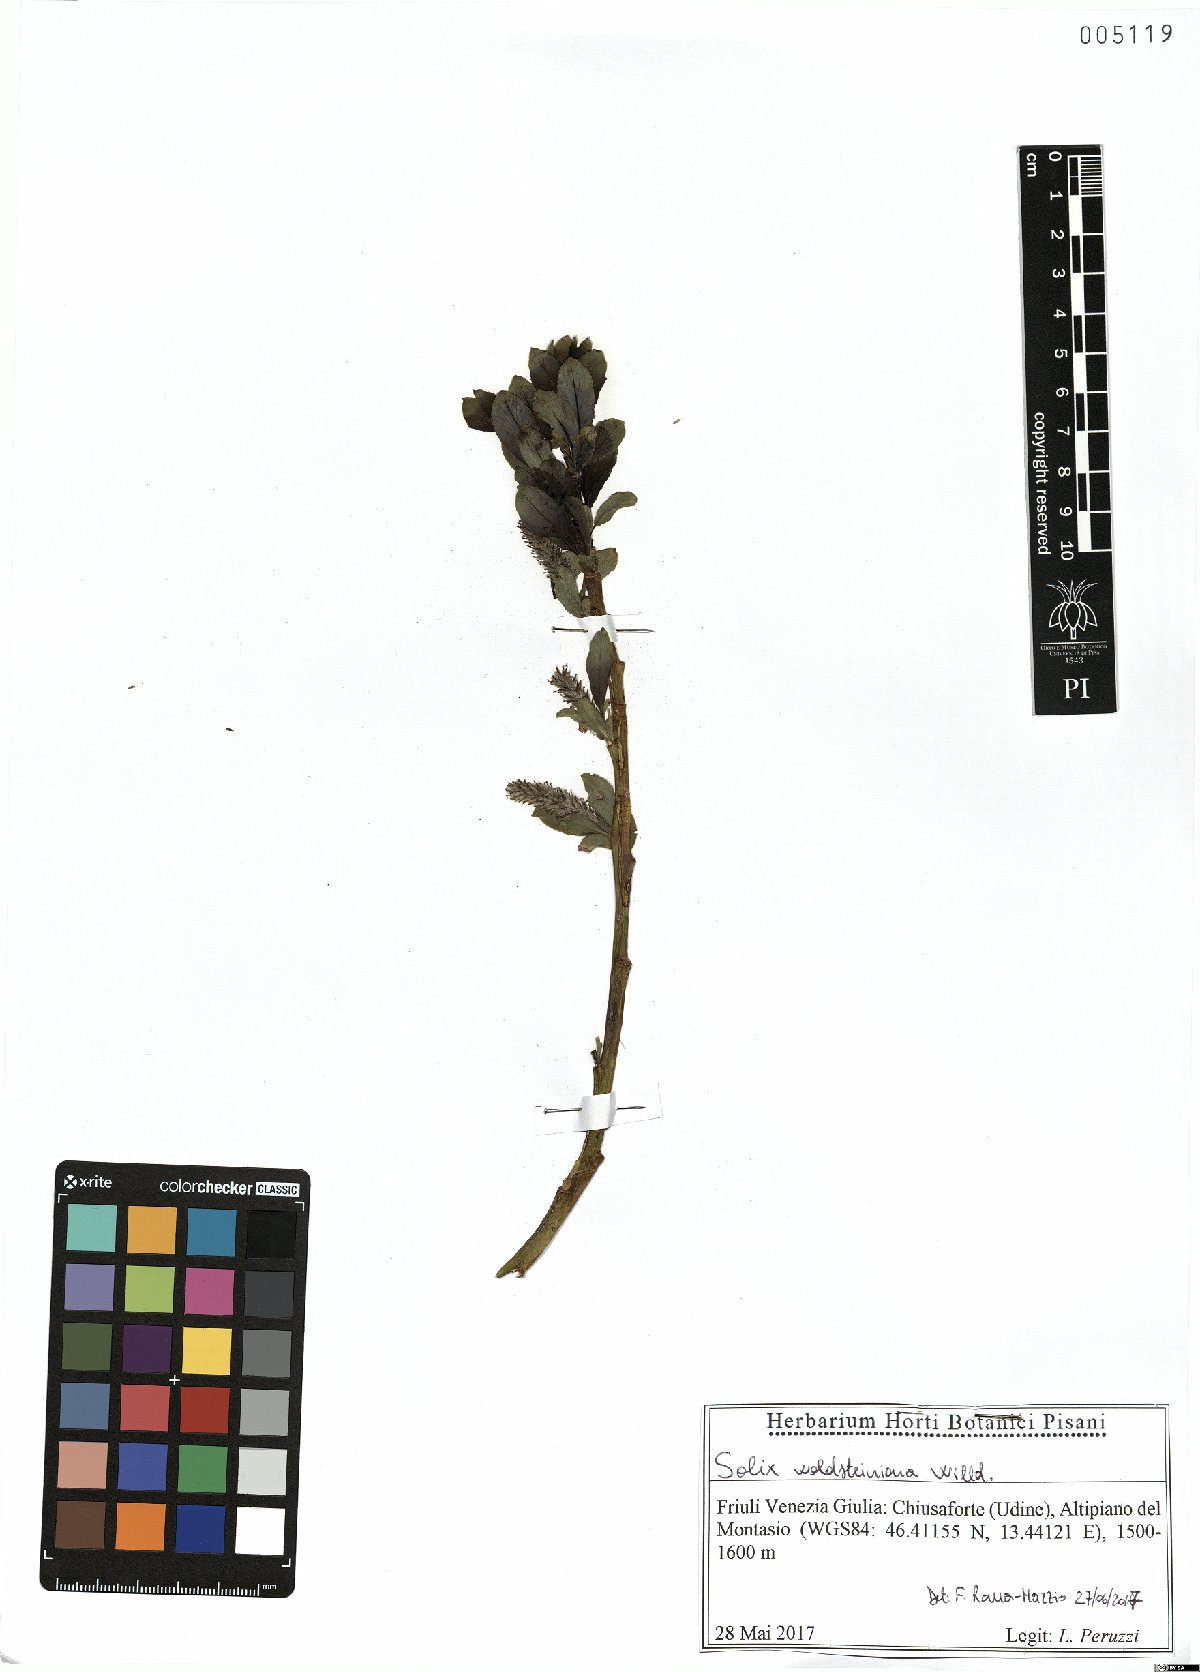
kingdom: Plantae
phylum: Tracheophyta
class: Magnoliopsida
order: Malpighiales
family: Salicaceae
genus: Salix
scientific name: Salix waldsteiniana
